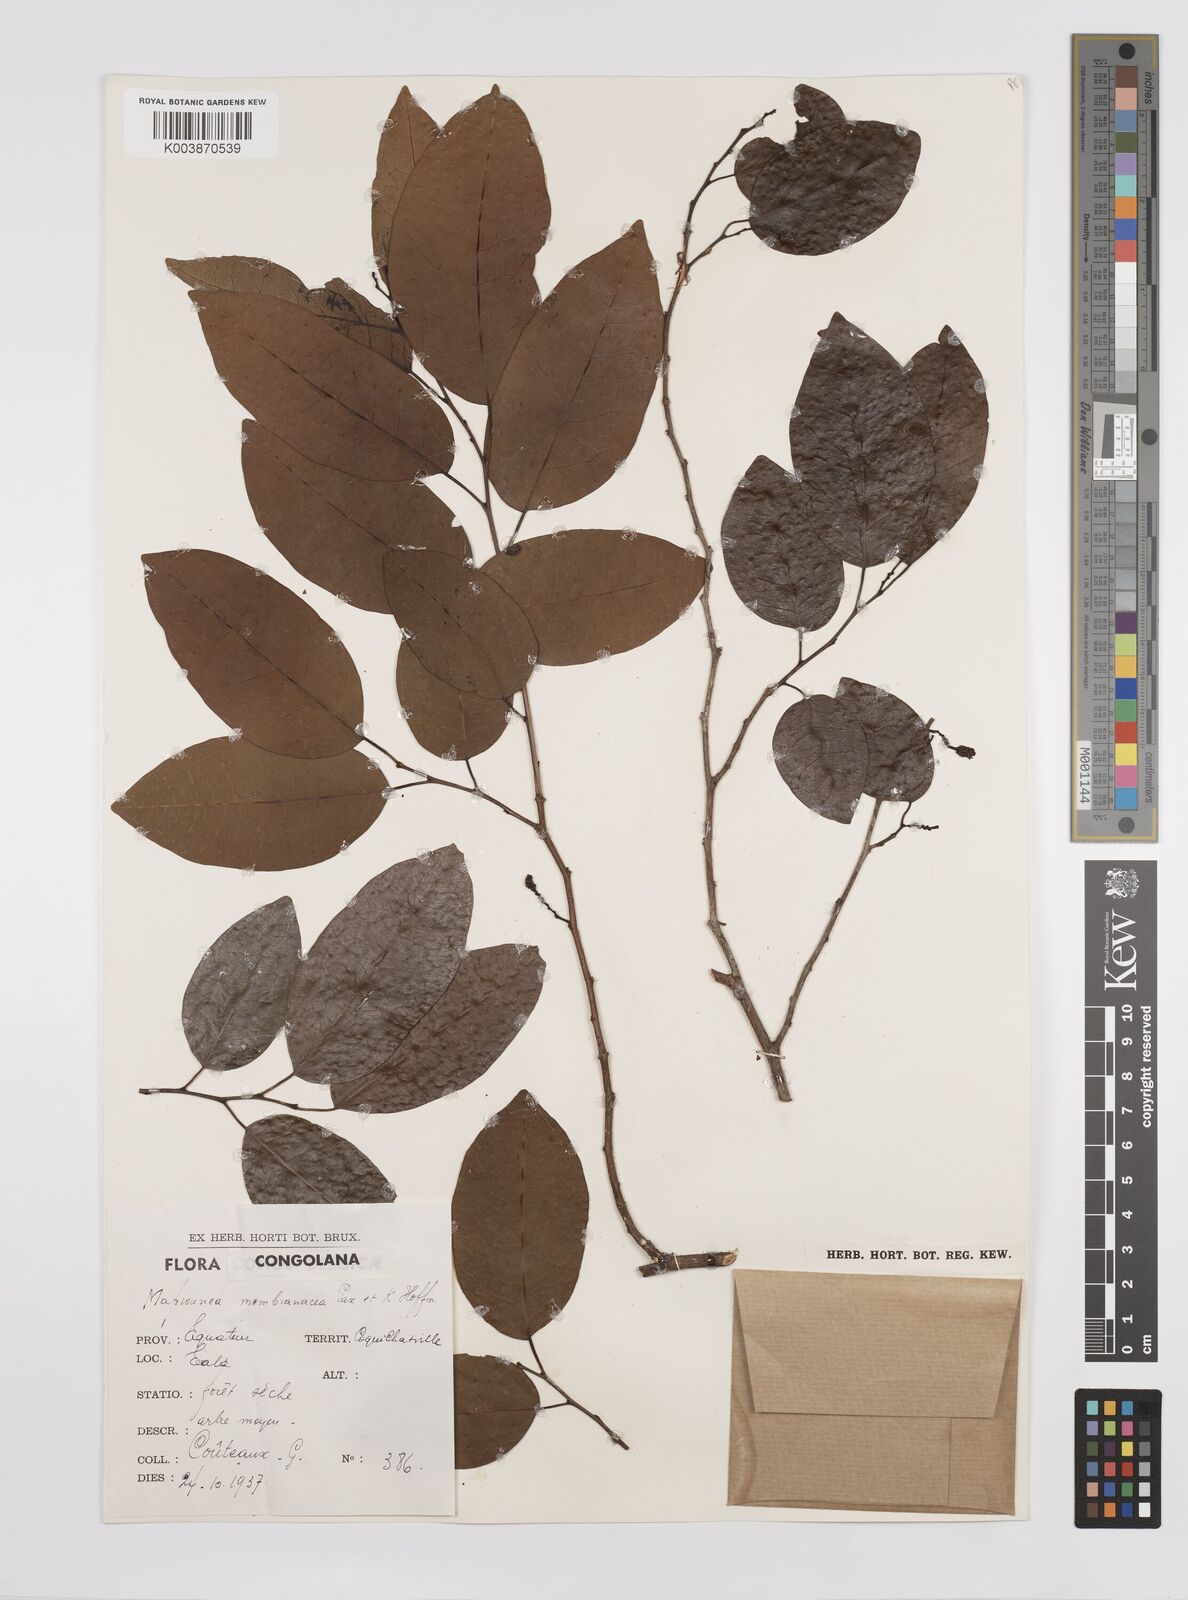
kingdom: Plantae
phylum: Tracheophyta
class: Magnoliopsida
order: Malpighiales
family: Euphorbiaceae
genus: Maprounea
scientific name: Maprounea membranacea
